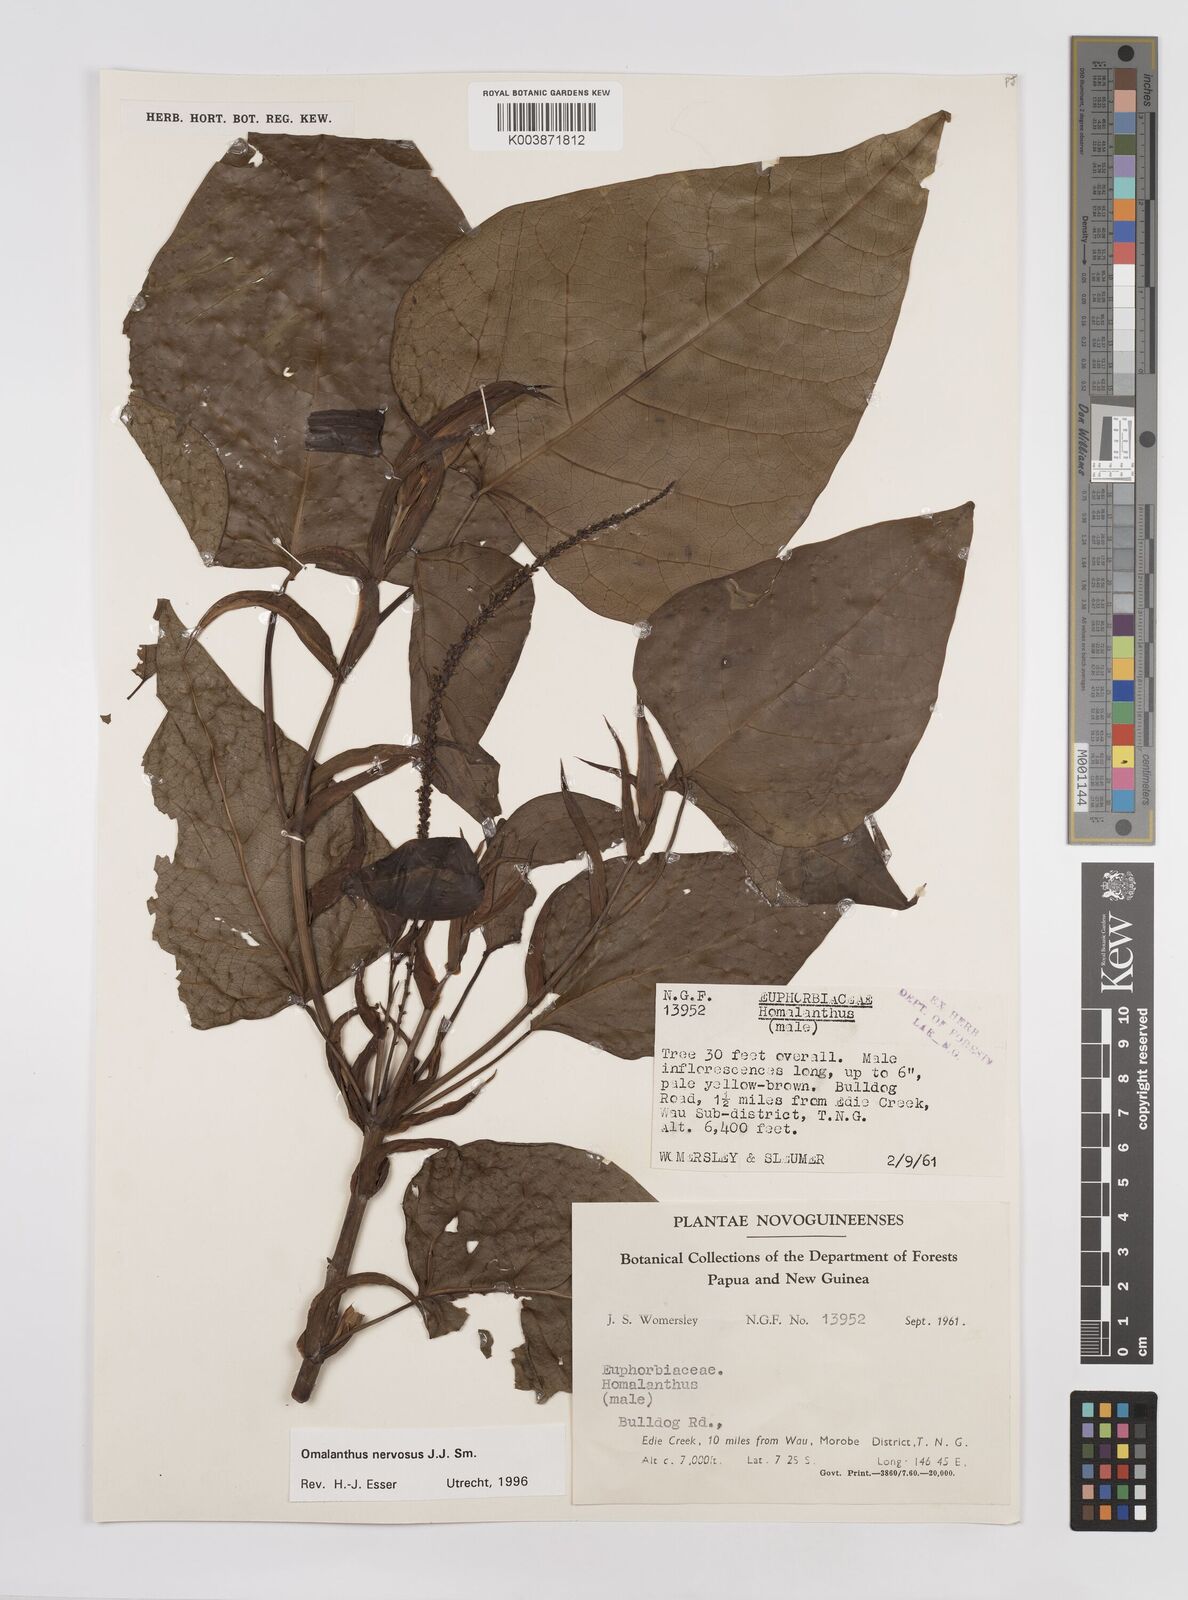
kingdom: Plantae
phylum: Tracheophyta
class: Magnoliopsida
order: Malpighiales
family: Euphorbiaceae
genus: Homalanthus
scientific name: Homalanthus nervosus
